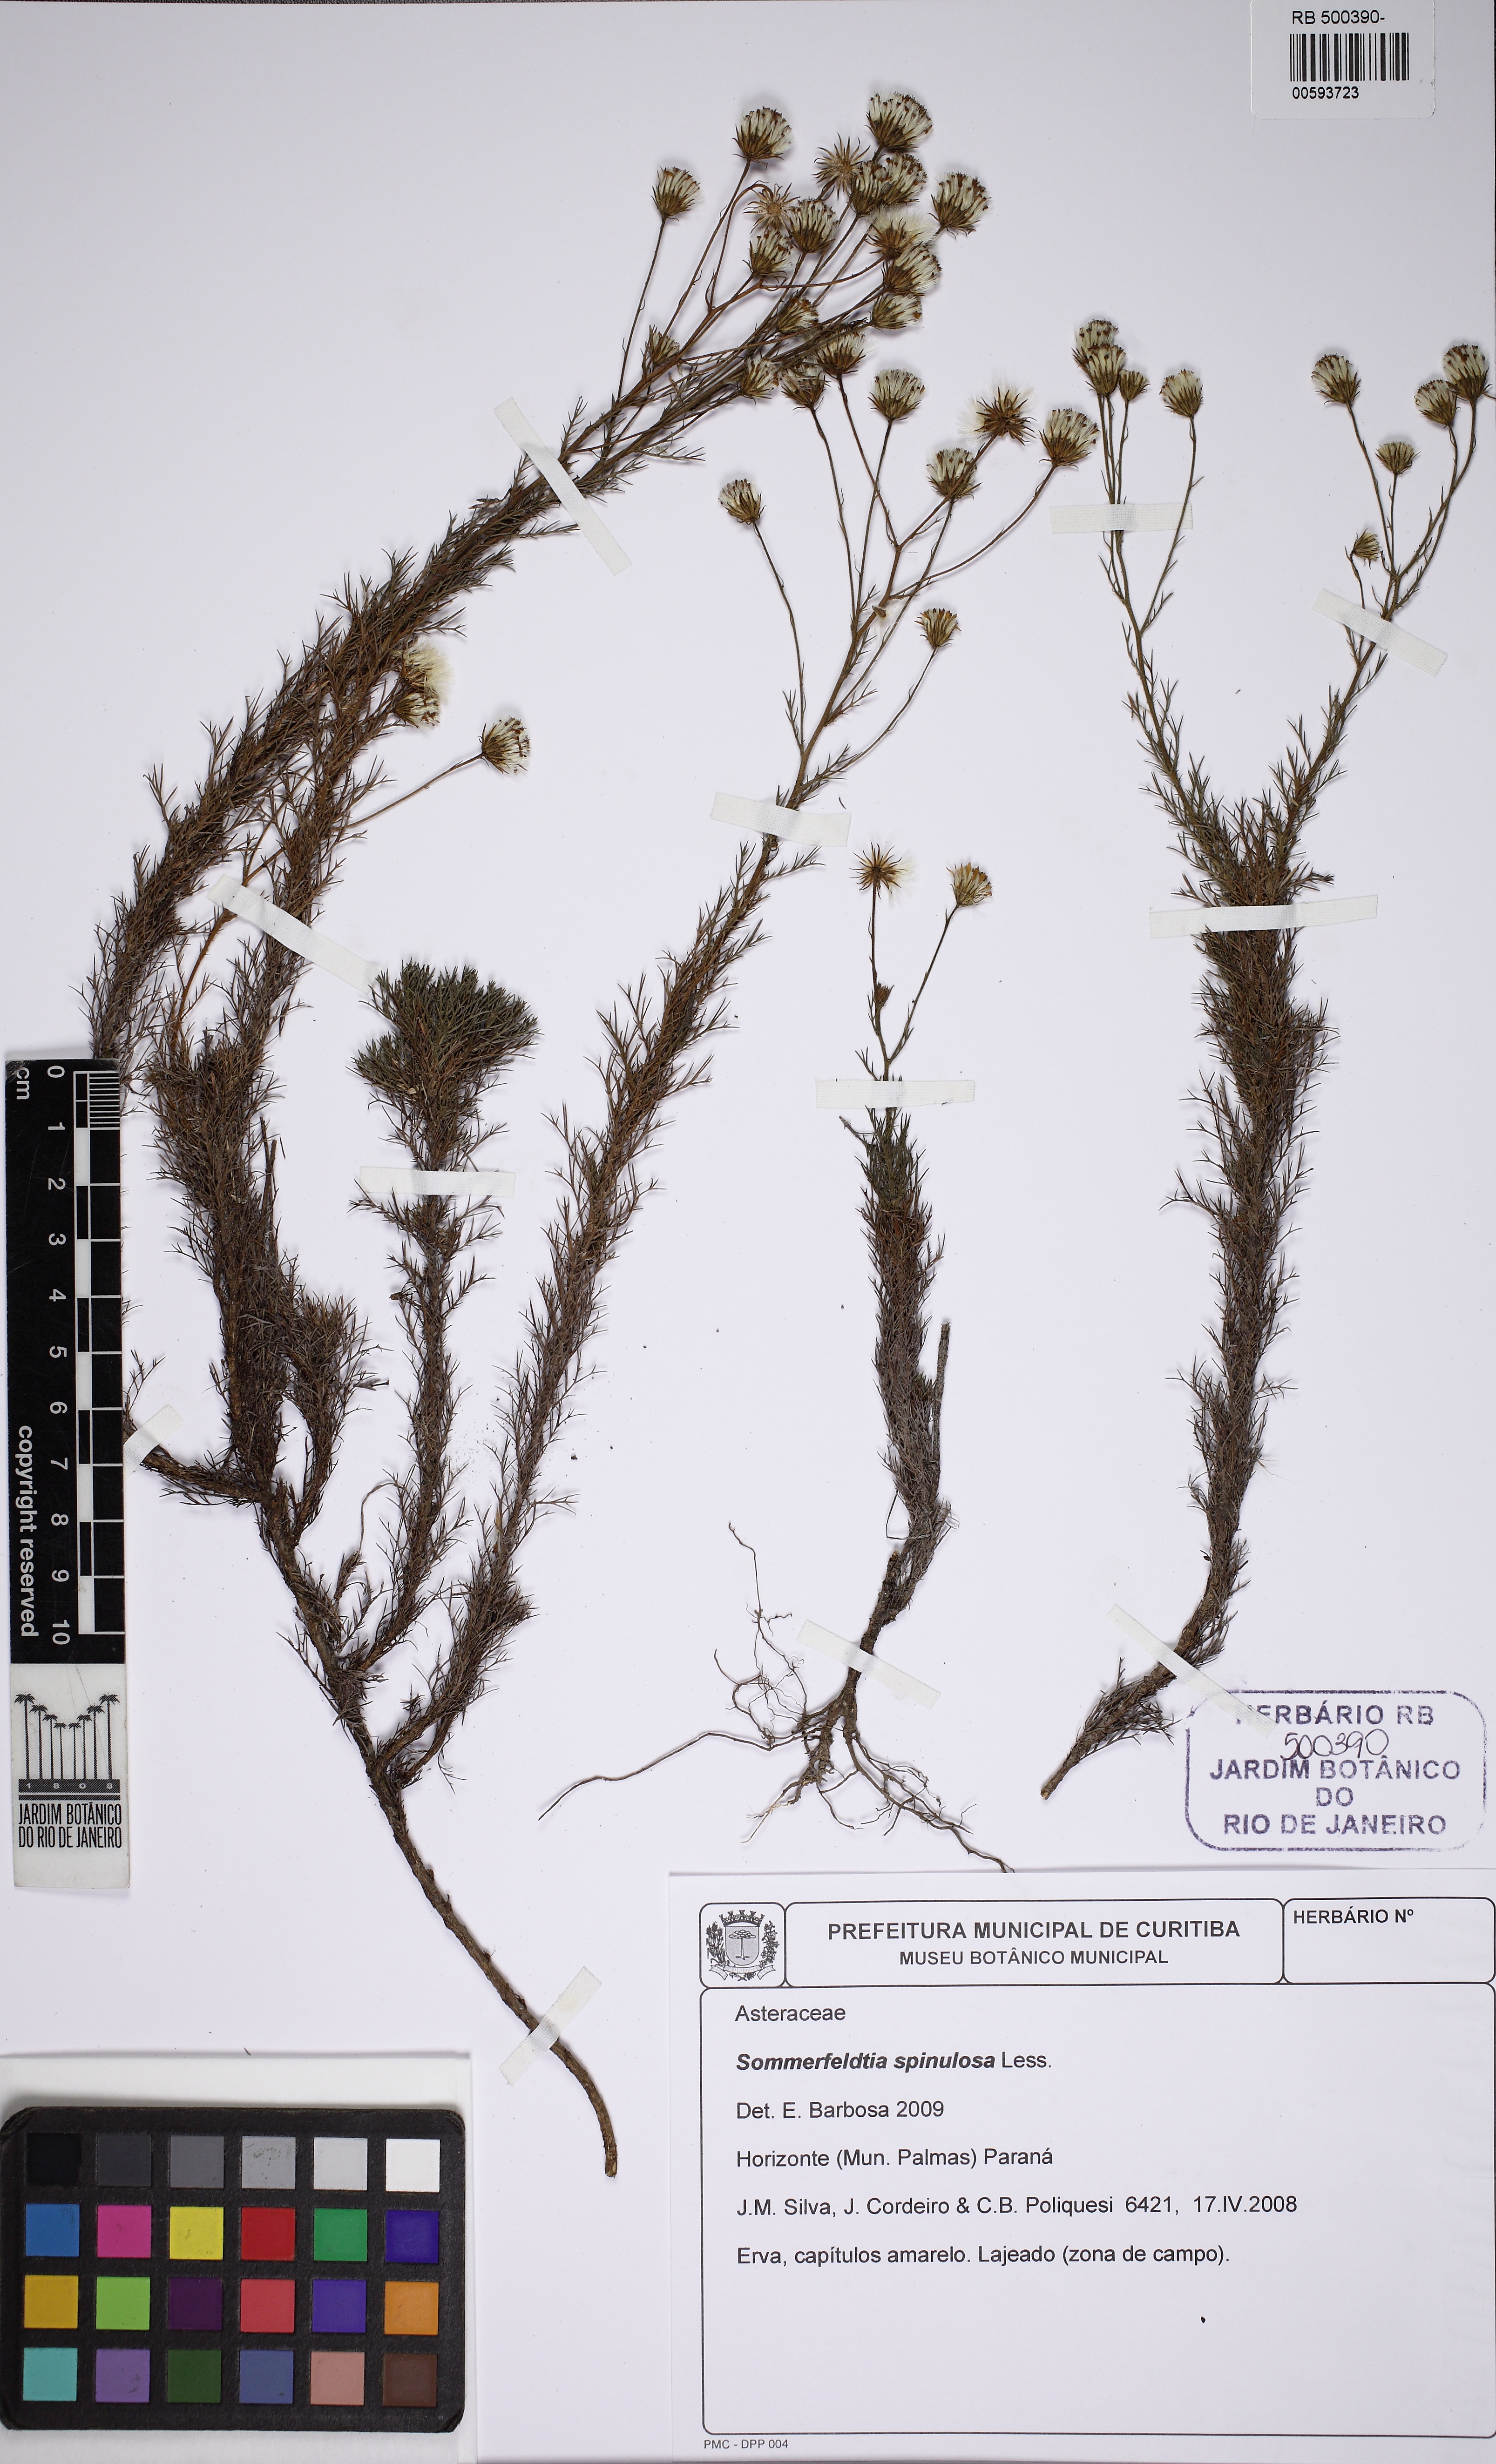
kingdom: Plantae
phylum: Tracheophyta
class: Magnoliopsida
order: Asterales
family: Asteraceae
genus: Sommerfeltia
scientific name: Sommerfeltia spinulosa
